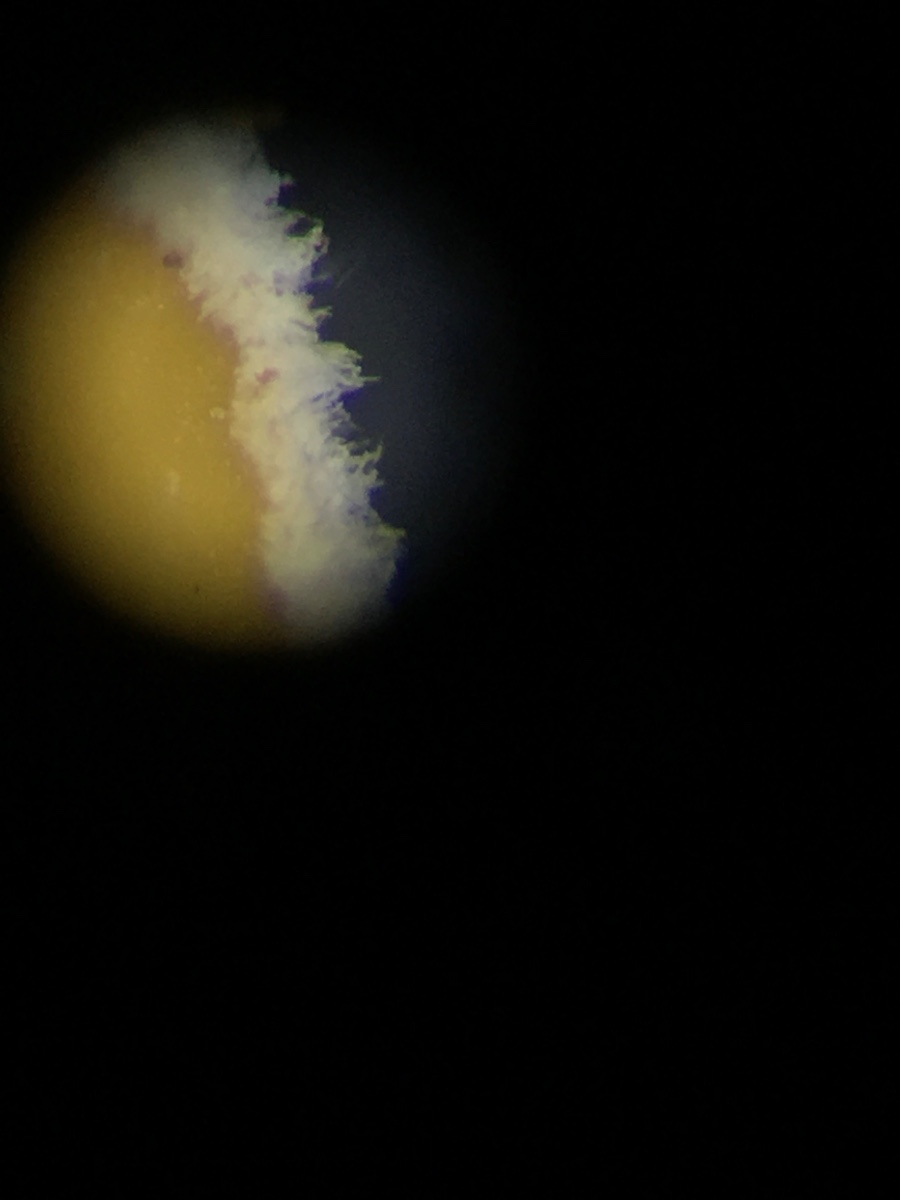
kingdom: Fungi
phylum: Ascomycota
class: Leotiomycetes
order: Helotiales
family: Lachnaceae
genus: Lachnellula
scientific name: Lachnellula calycina
